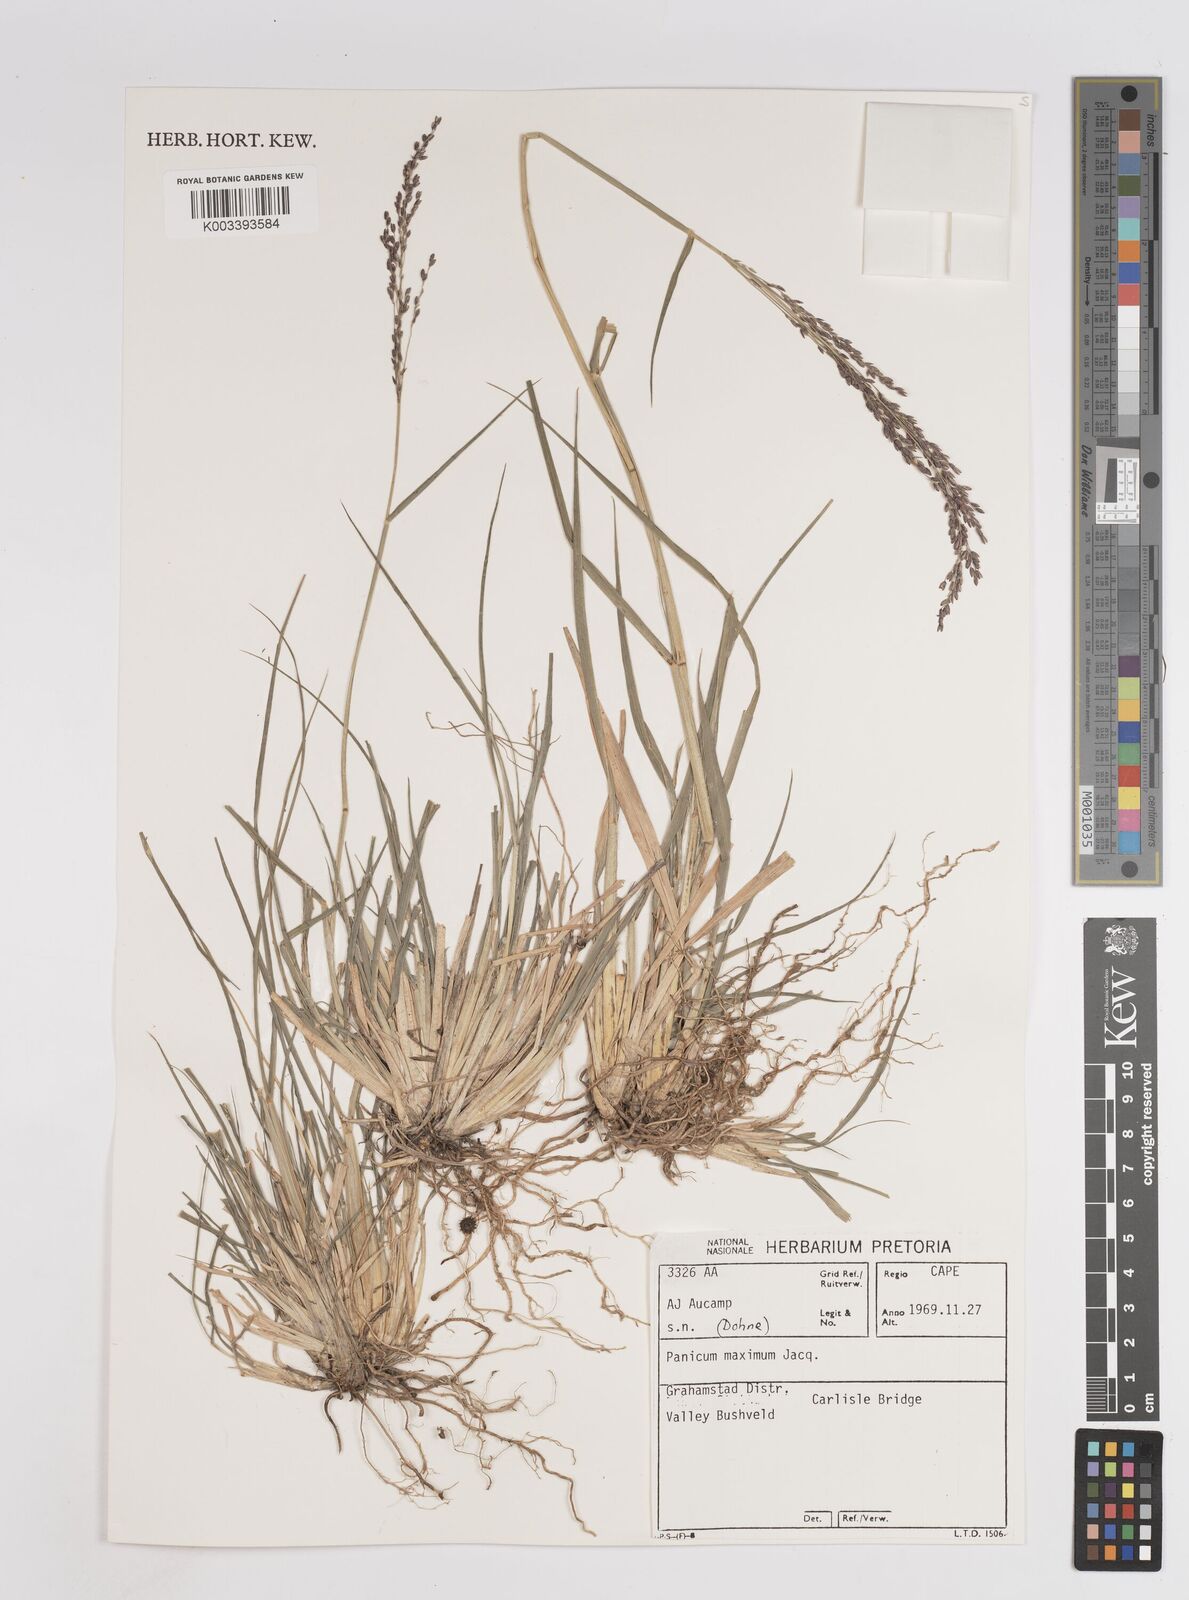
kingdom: Plantae
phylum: Tracheophyta
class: Liliopsida
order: Poales
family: Poaceae
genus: Megathyrsus
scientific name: Megathyrsus maximus
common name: Guineagrass
